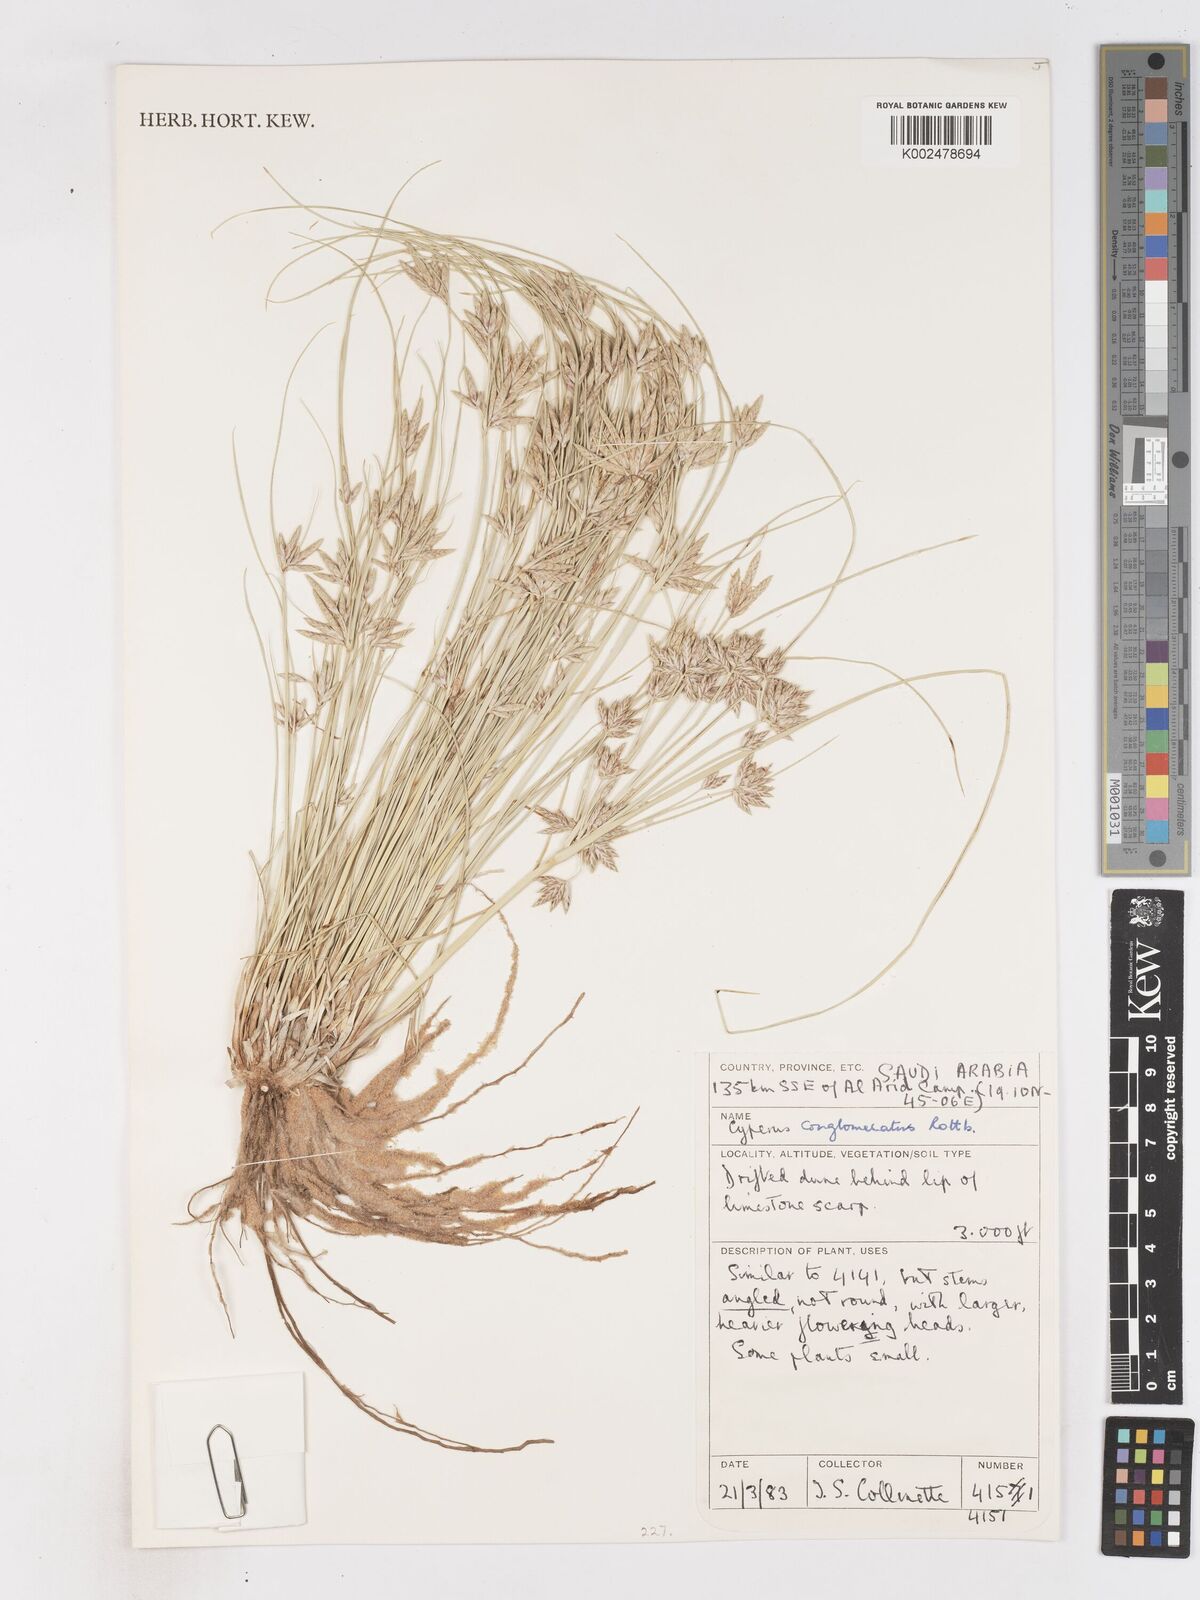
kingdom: Plantae
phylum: Tracheophyta
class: Liliopsida
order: Poales
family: Cyperaceae
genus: Cyperus
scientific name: Cyperus conglomeratus
